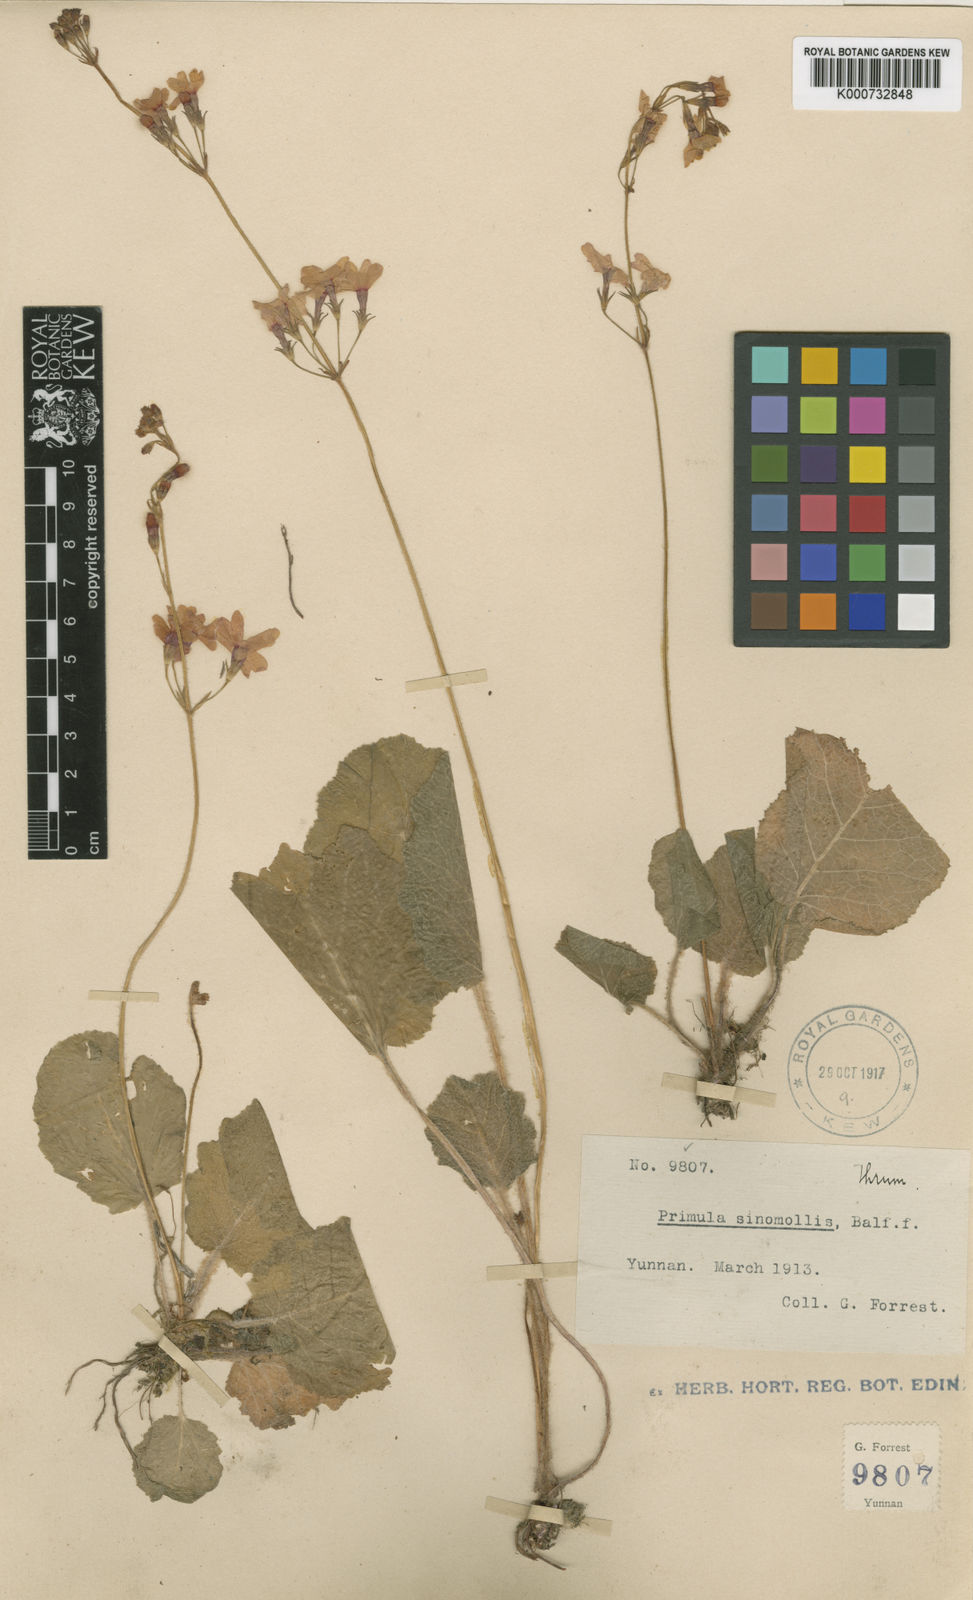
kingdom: Plantae
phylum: Tracheophyta
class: Magnoliopsida
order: Ericales
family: Primulaceae
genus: Primula
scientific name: Primula cinerascens
